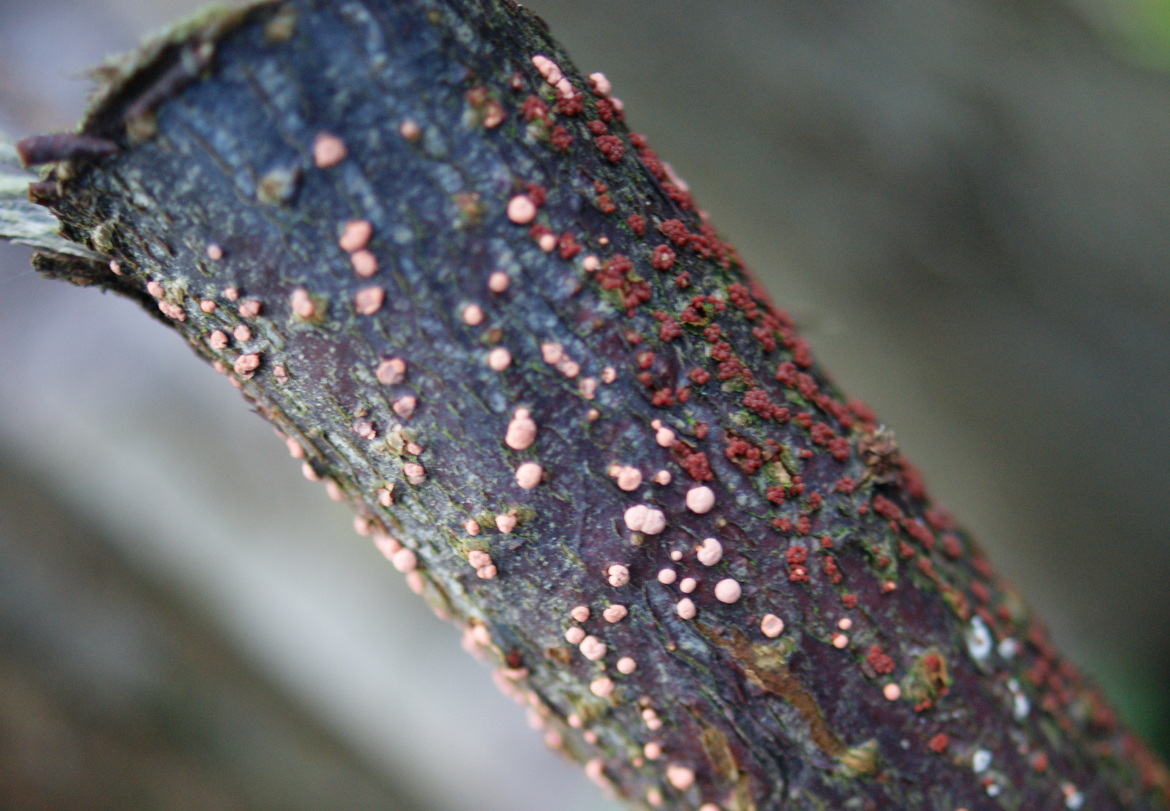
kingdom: Fungi
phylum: Ascomycota
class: Sordariomycetes
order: Hypocreales
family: Nectriaceae
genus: Nectria
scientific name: Nectria cinnabarina
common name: almindelig cinnobersvamp
